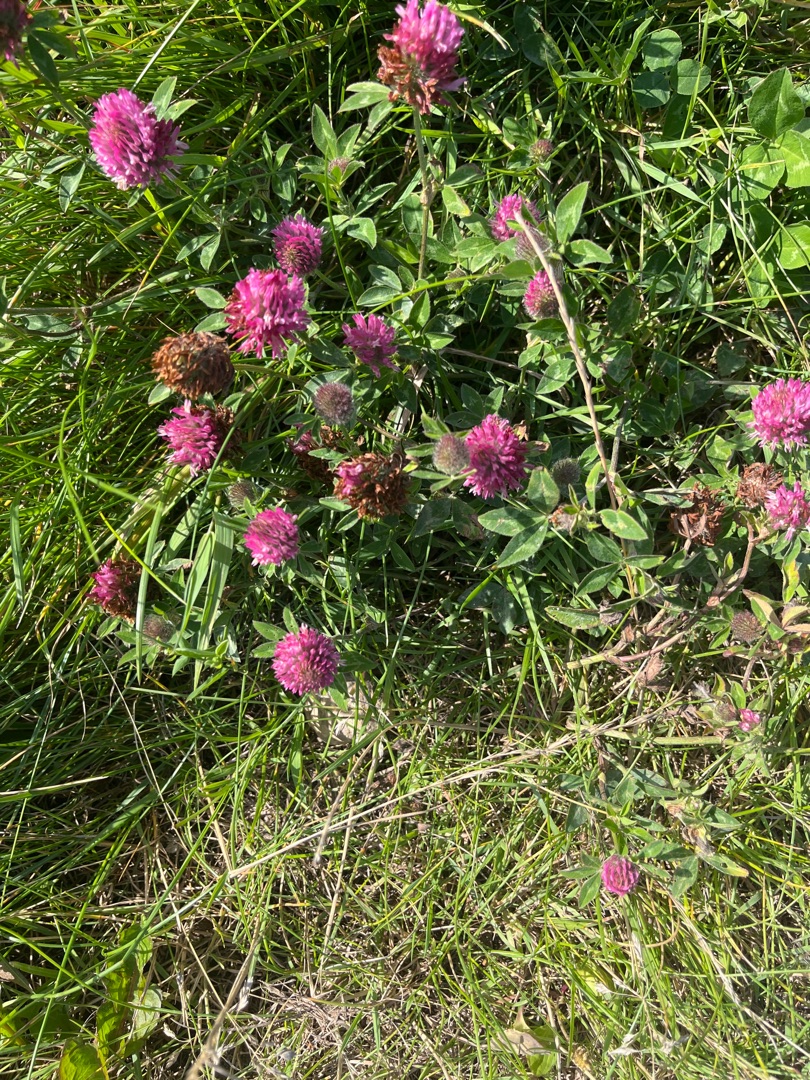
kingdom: Plantae
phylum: Tracheophyta
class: Magnoliopsida
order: Fabales
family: Fabaceae
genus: Trifolium
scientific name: Trifolium pratense
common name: Rød-kløver
